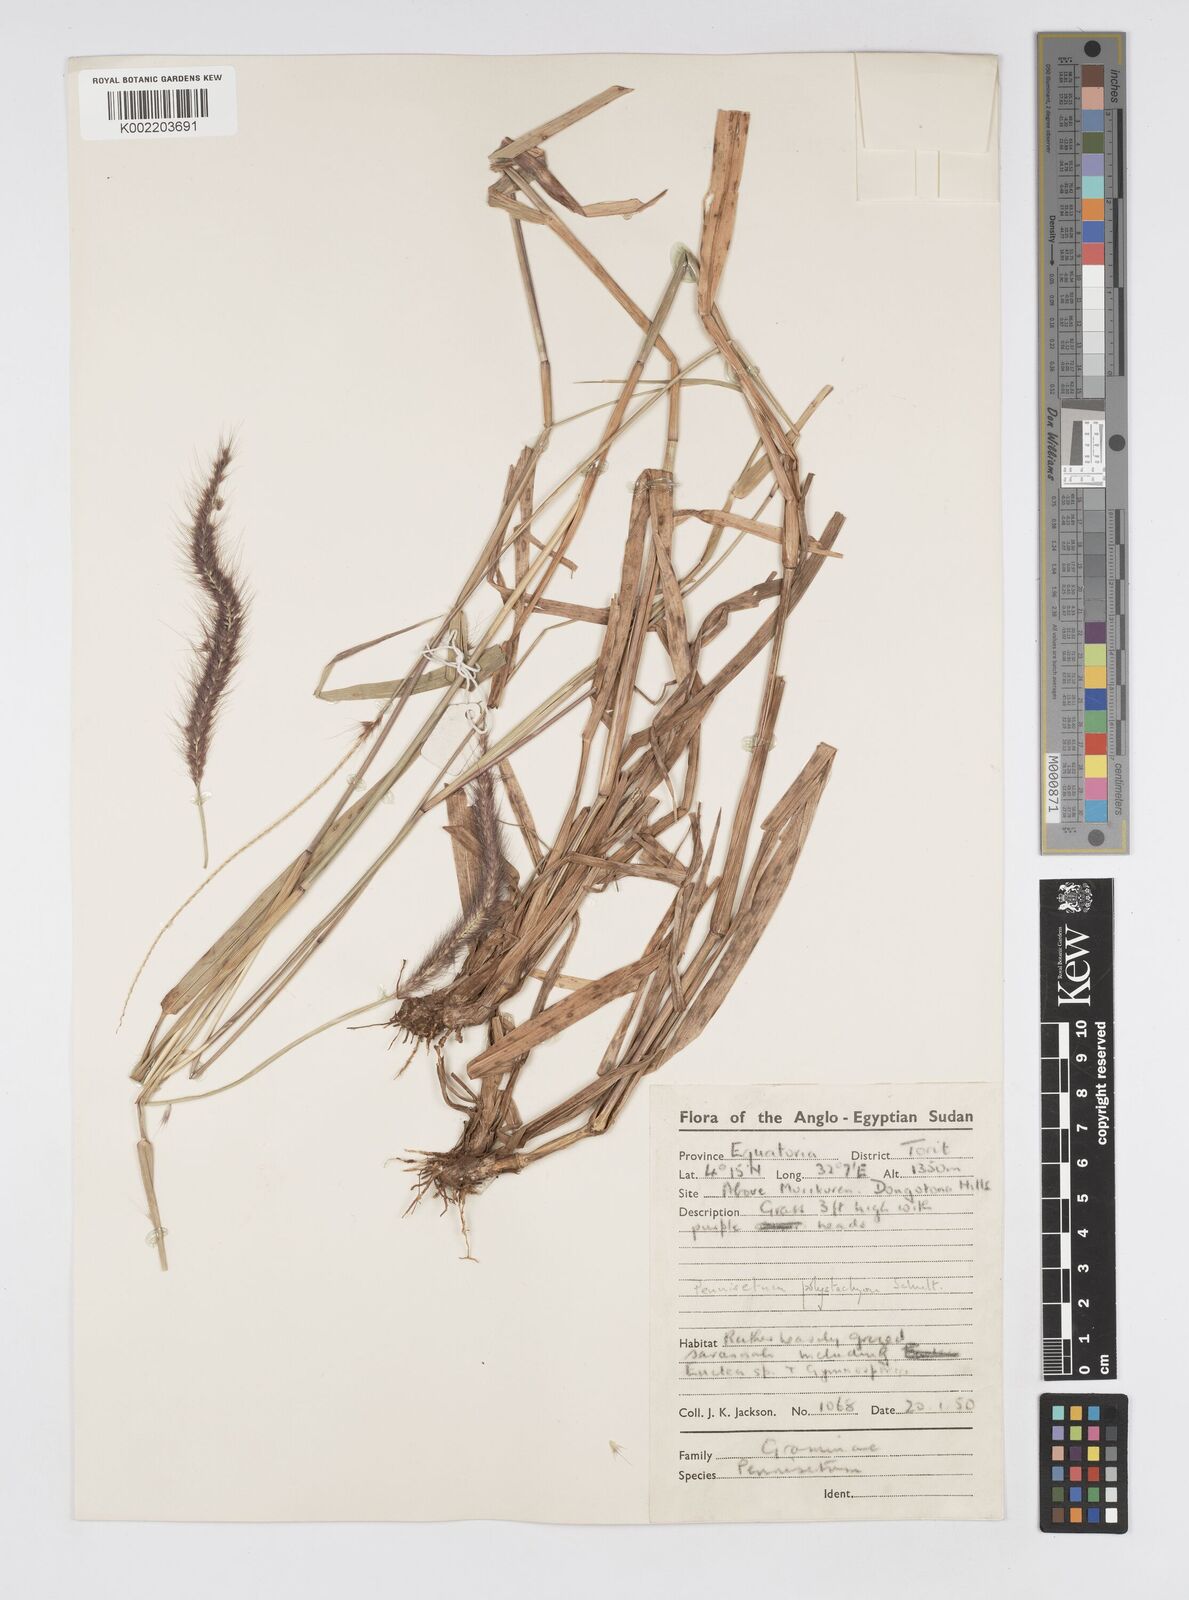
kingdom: Plantae
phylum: Tracheophyta
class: Liliopsida
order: Poales
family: Poaceae
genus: Setaria
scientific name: Setaria parviflora
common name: Knotroot bristle-grass
